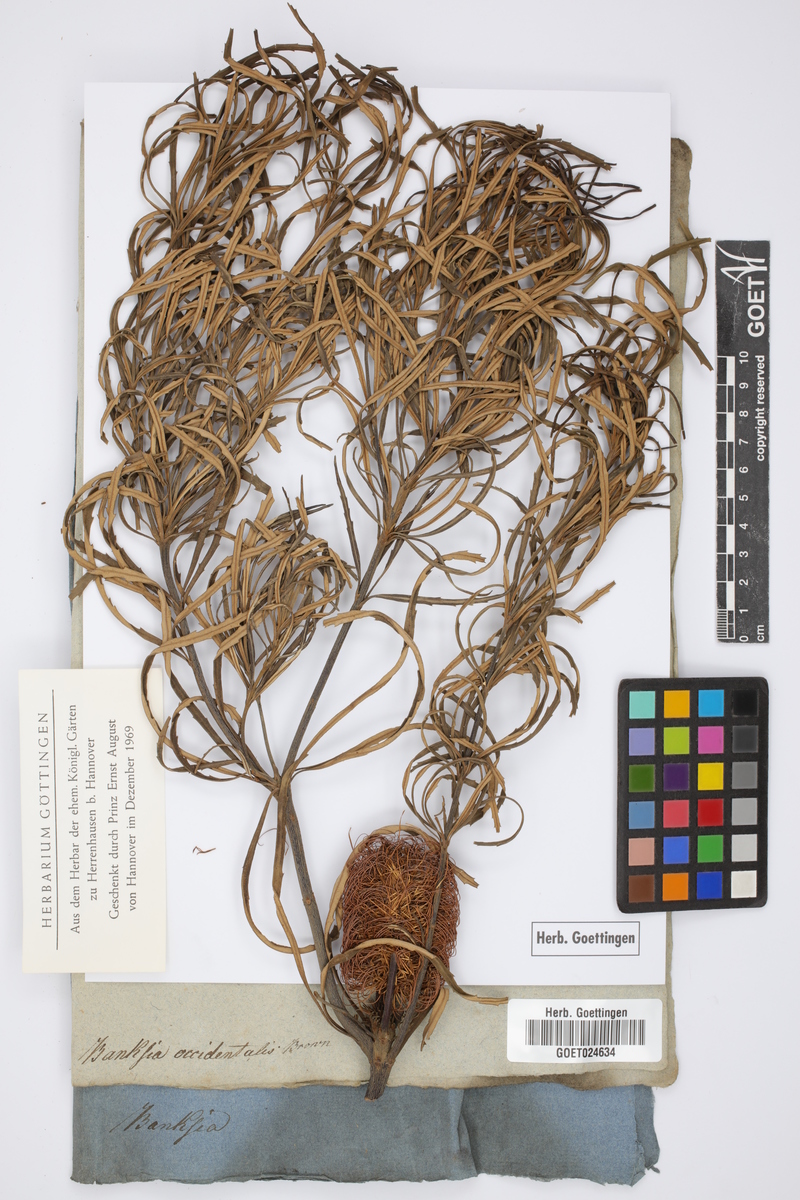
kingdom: Plantae
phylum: Tracheophyta
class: Magnoliopsida
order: Proteales
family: Proteaceae
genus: Banksia
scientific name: Banksia occidentalis
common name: Red swamp banksia
